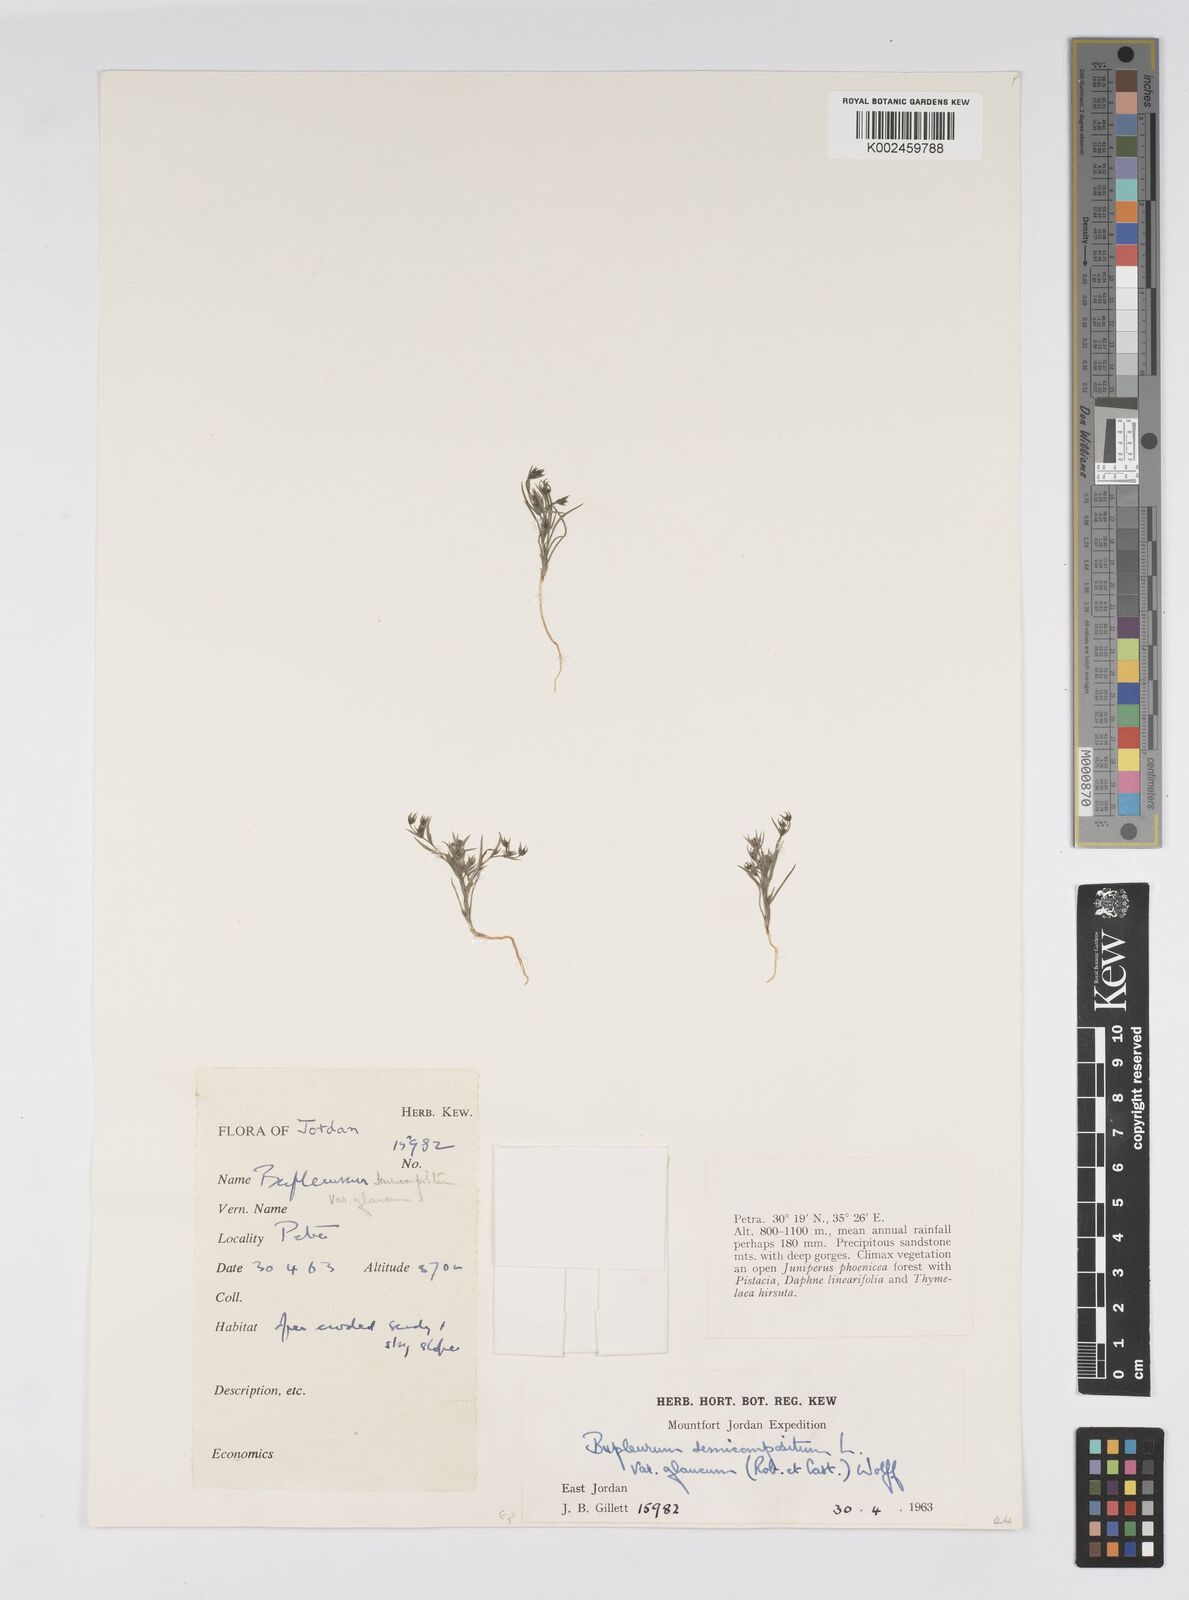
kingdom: Plantae
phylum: Tracheophyta
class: Magnoliopsida
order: Apiales
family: Apiaceae
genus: Bupleurum
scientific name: Bupleurum semicompositum
